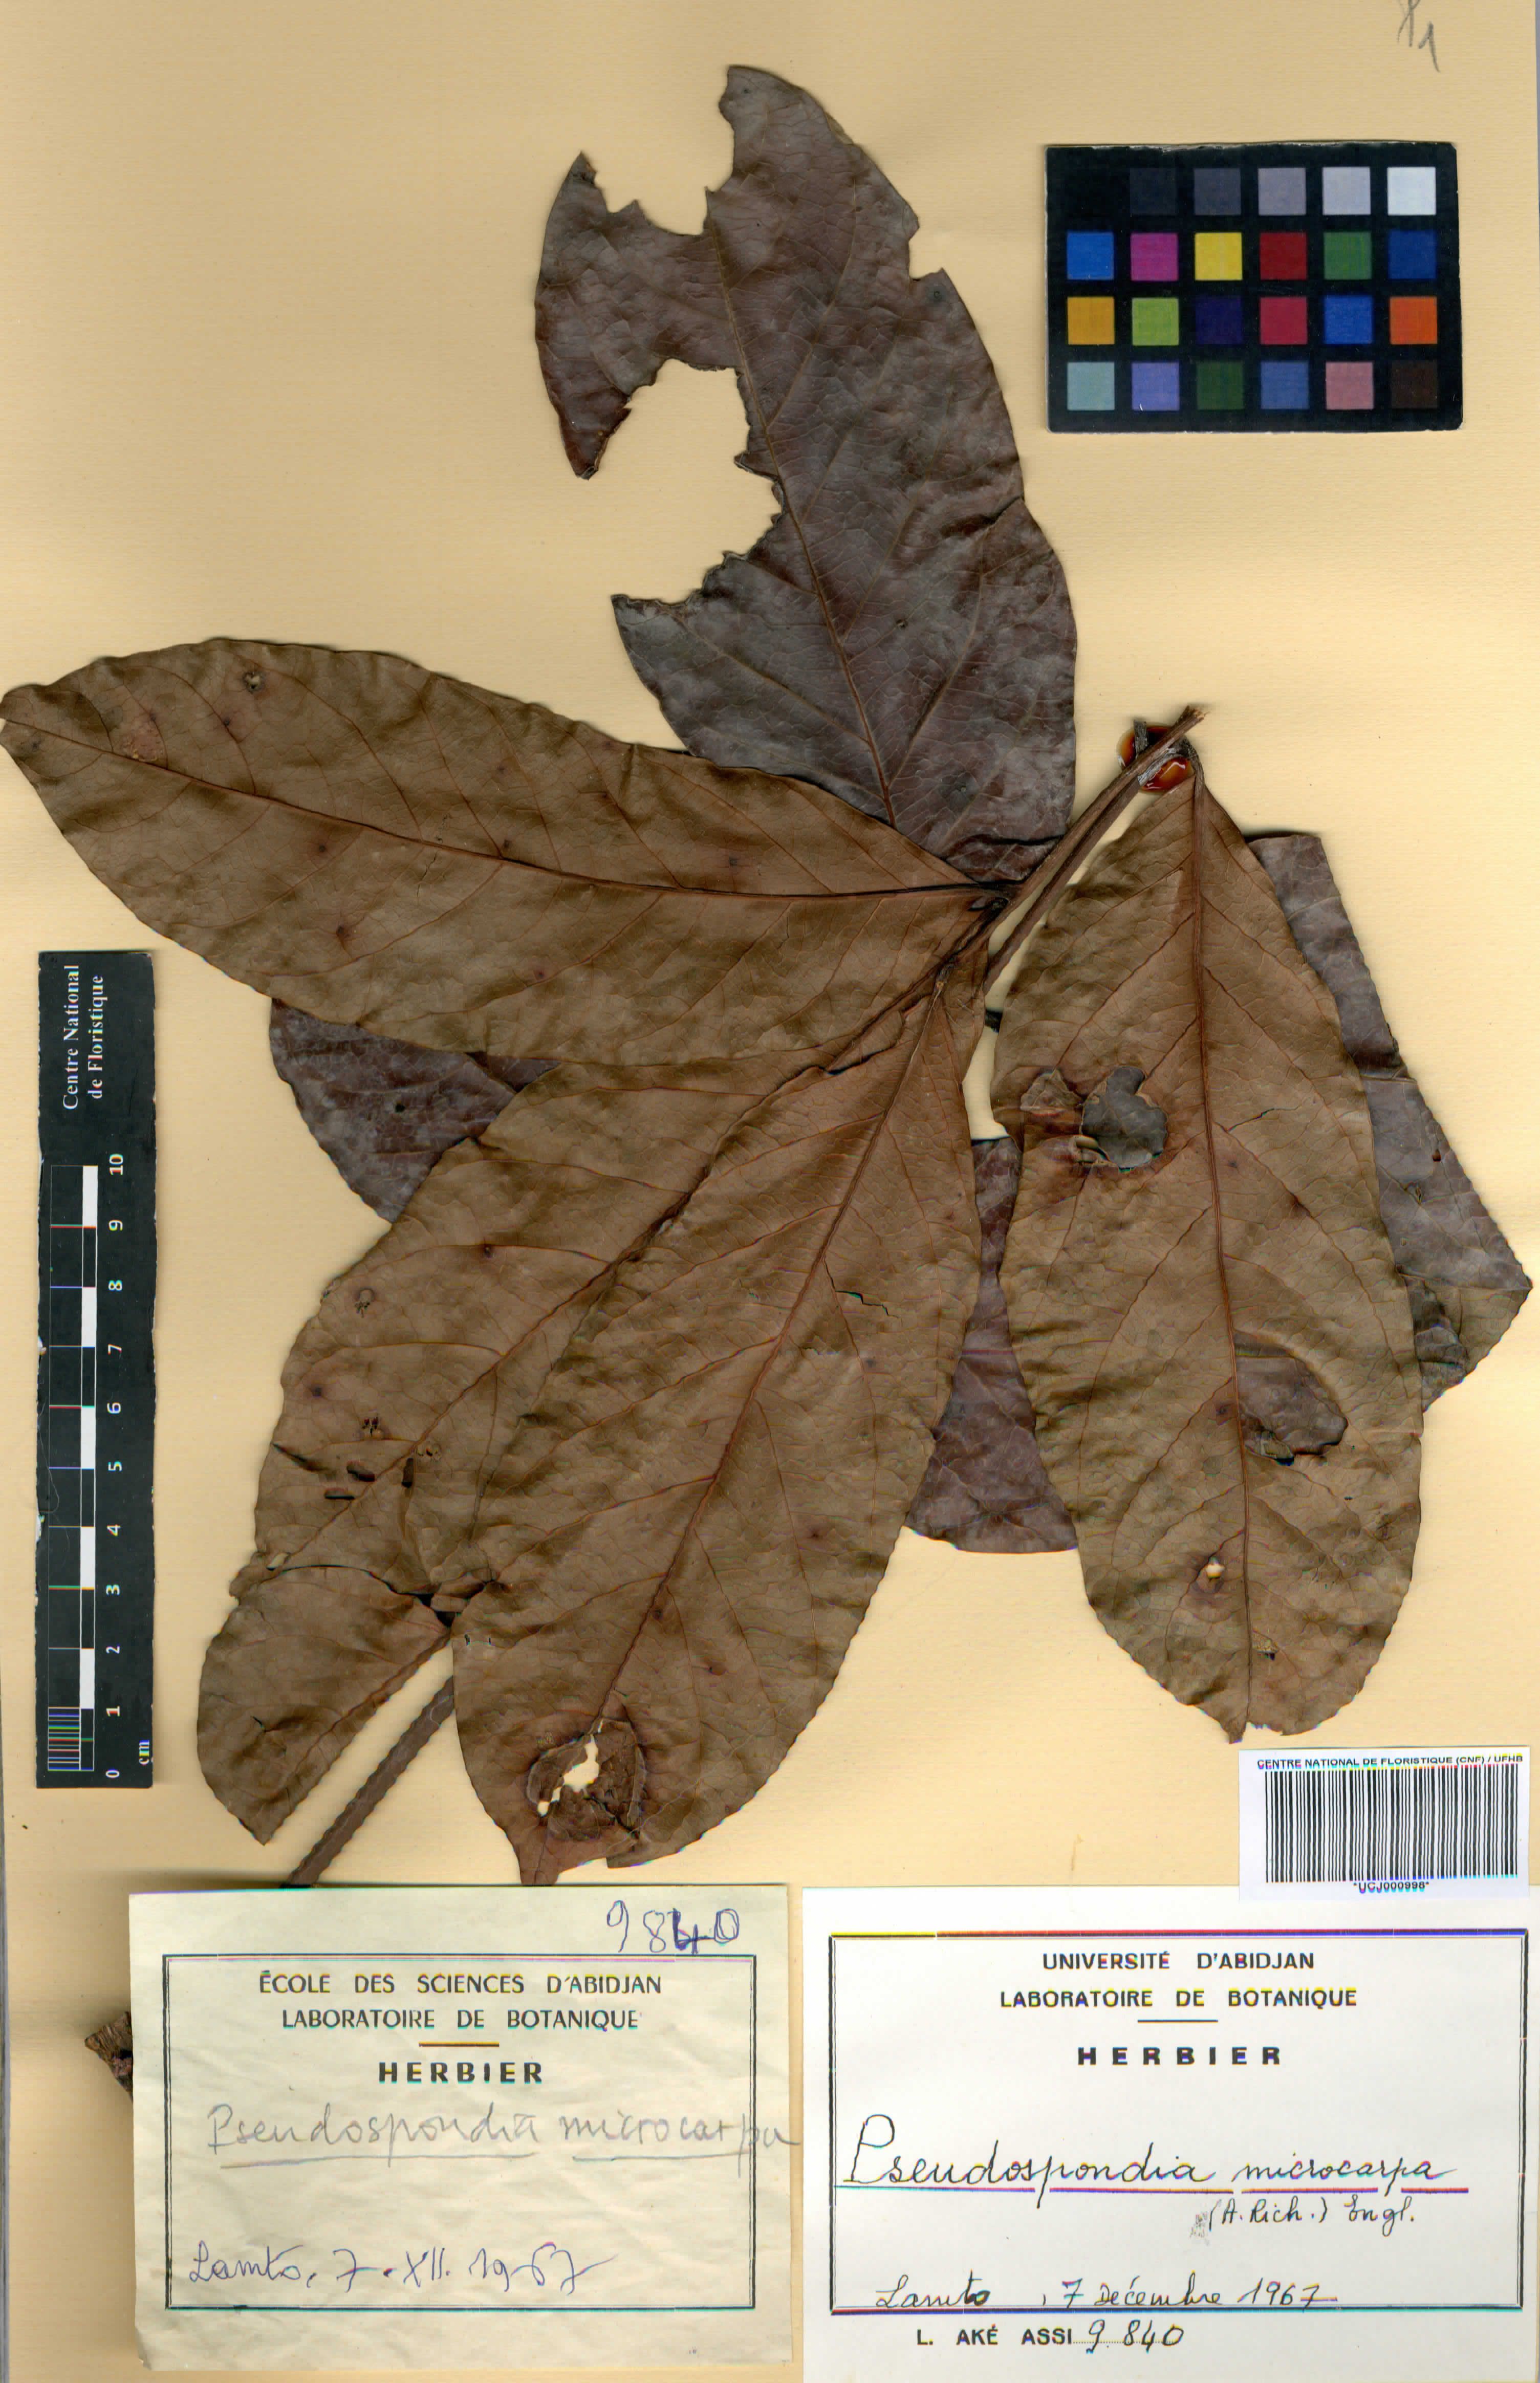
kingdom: Plantae
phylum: Tracheophyta
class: Magnoliopsida
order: Sapindales
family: Anacardiaceae
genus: Pseudospondias
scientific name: Pseudospondias microcarpa
